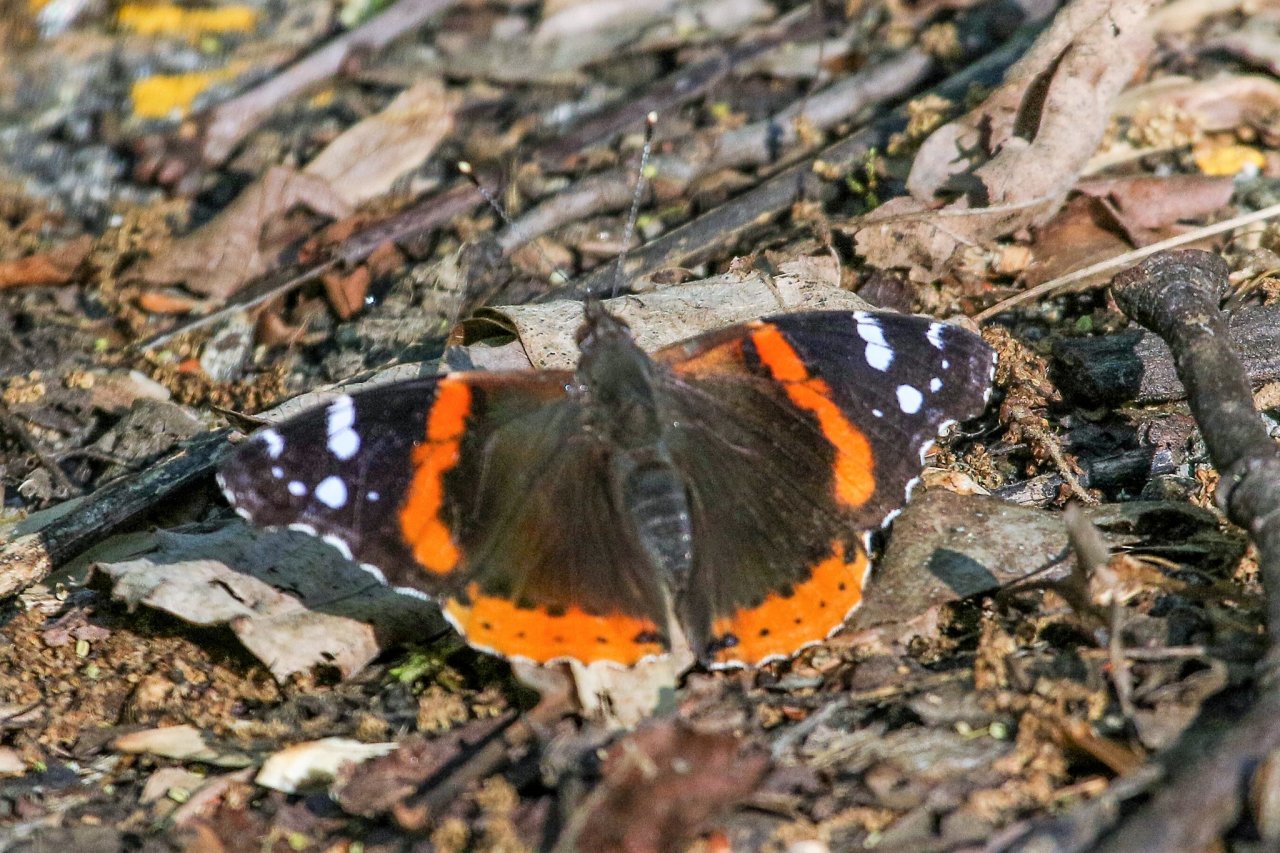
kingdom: Animalia
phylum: Arthropoda
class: Insecta
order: Lepidoptera
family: Nymphalidae
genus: Vanessa
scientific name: Vanessa atalanta
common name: Red Admiral
